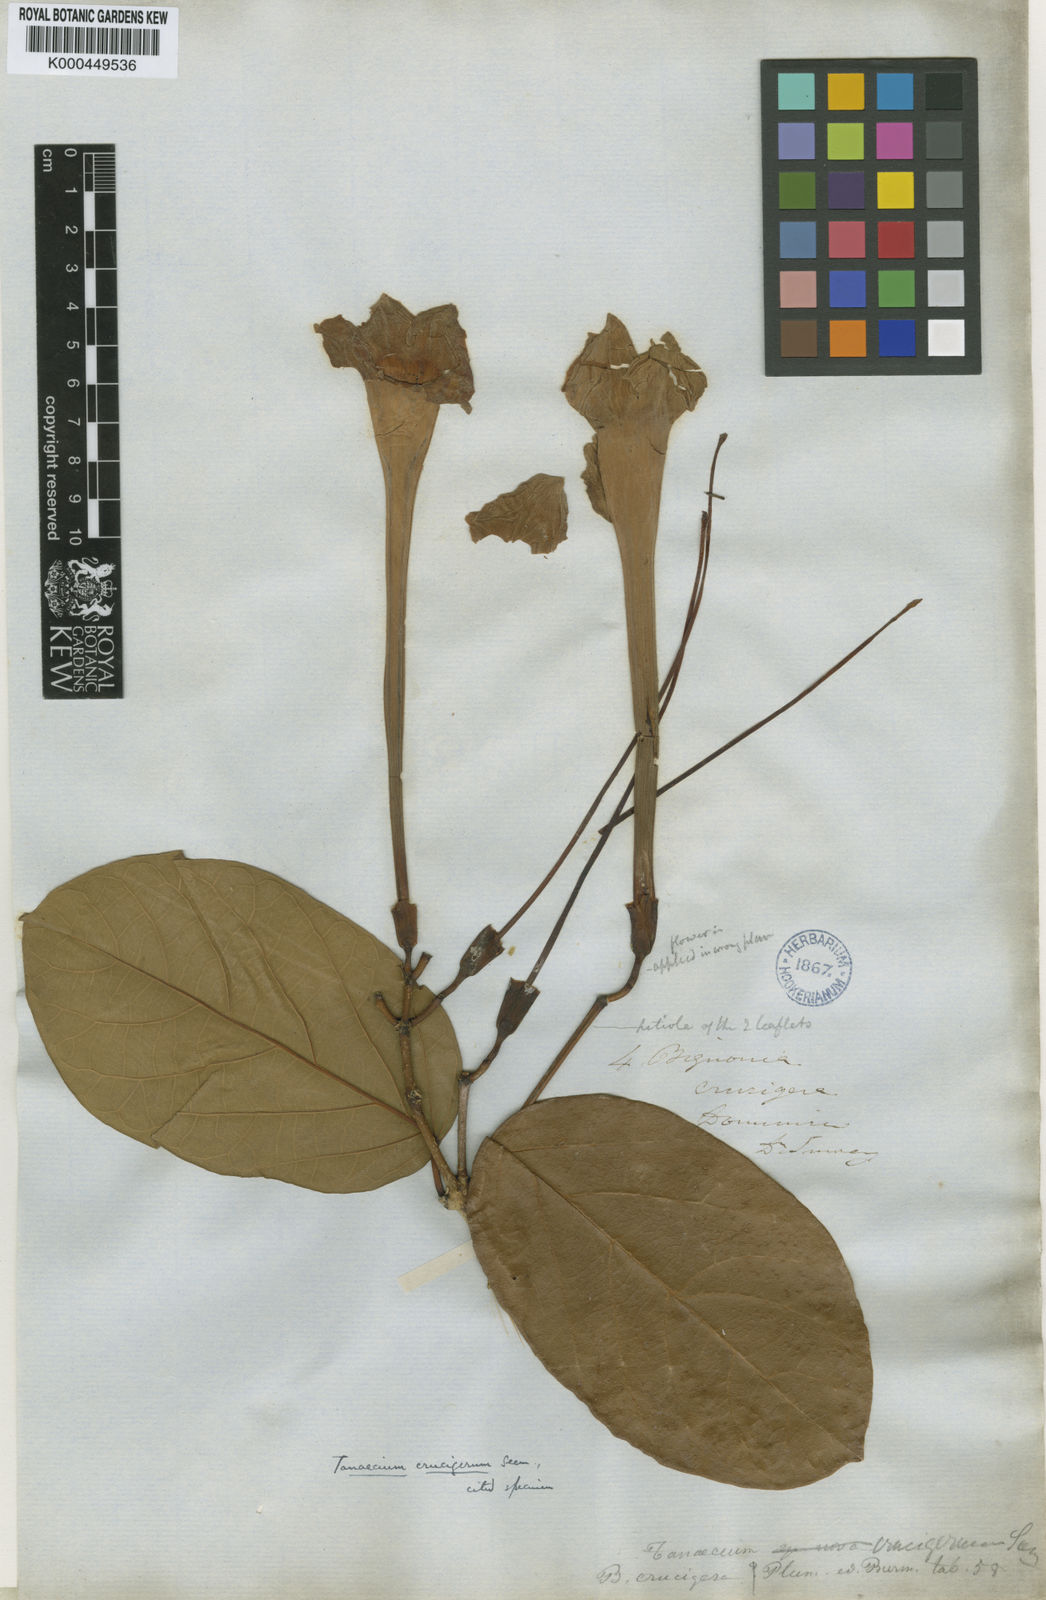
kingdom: Plantae
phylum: Tracheophyta
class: Magnoliopsida
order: Lamiales
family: Bignoniaceae
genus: Tanaecium
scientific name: Tanaecium crucigerum
